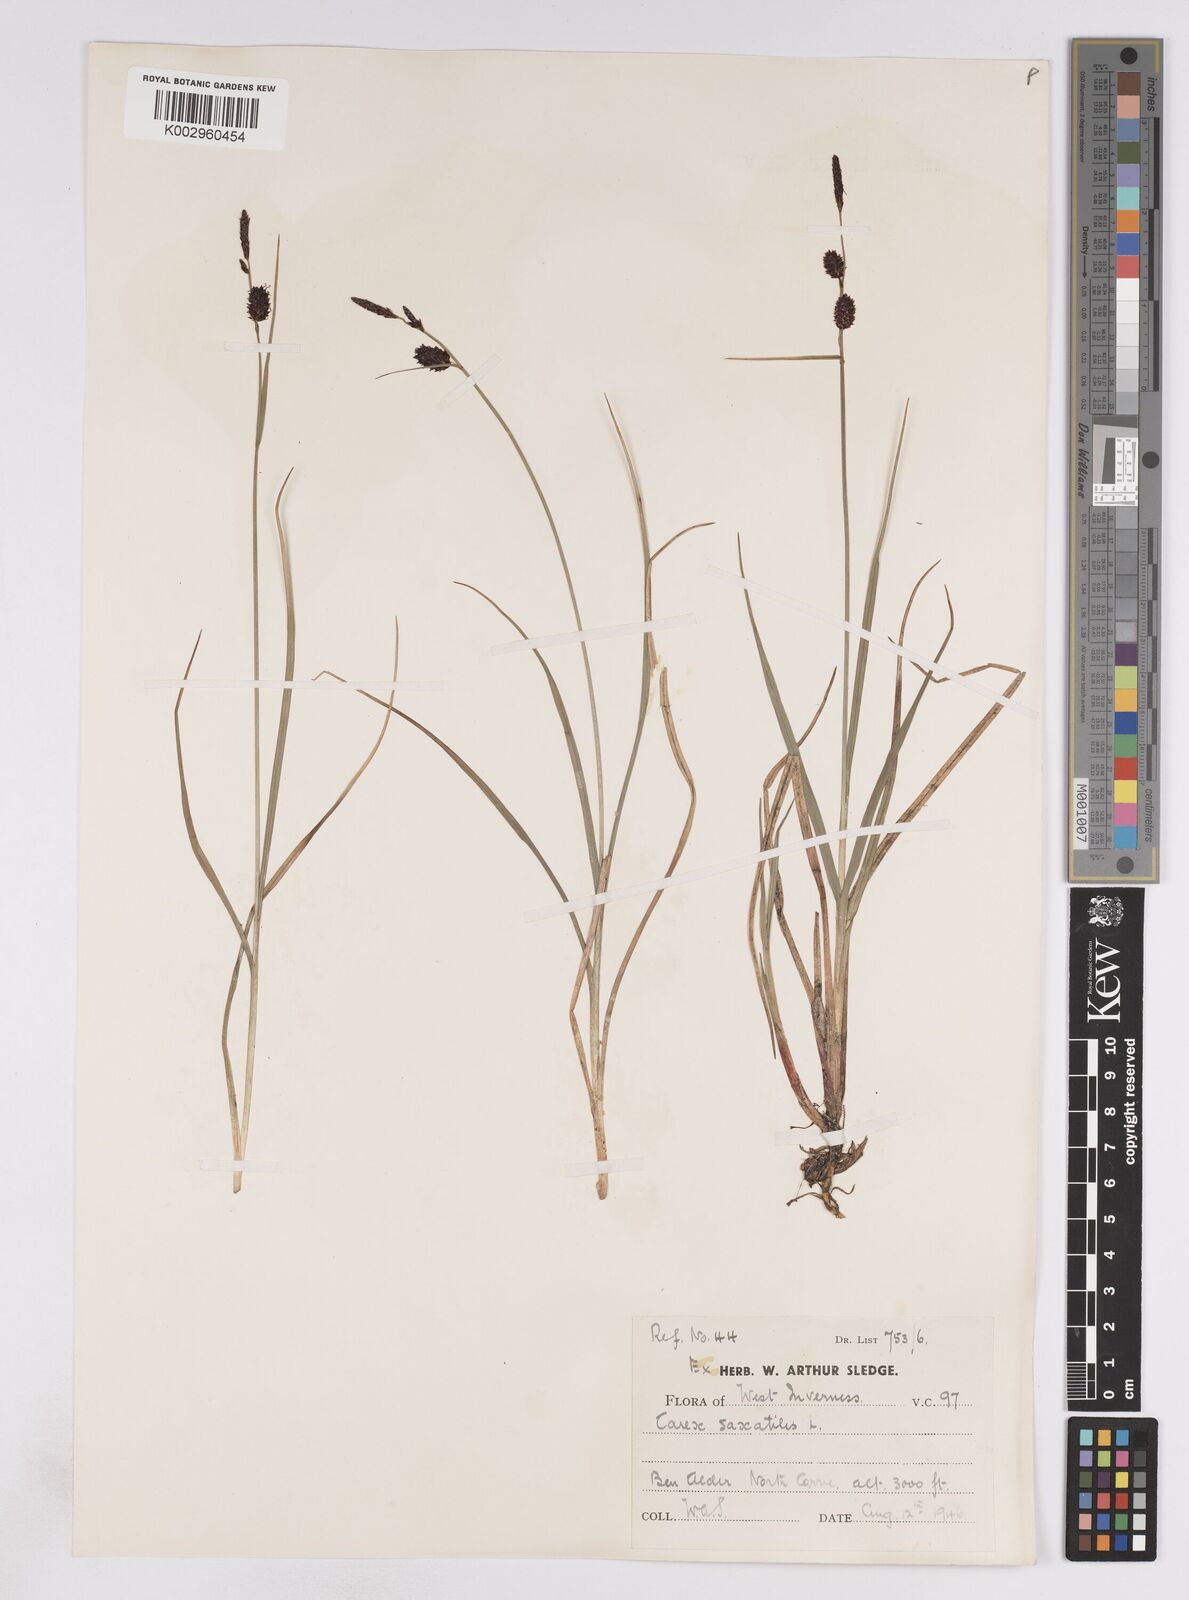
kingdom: Plantae
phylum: Tracheophyta
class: Liliopsida
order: Poales
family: Cyperaceae
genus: Carex
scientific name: Carex saxatilis
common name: Russet sedge
